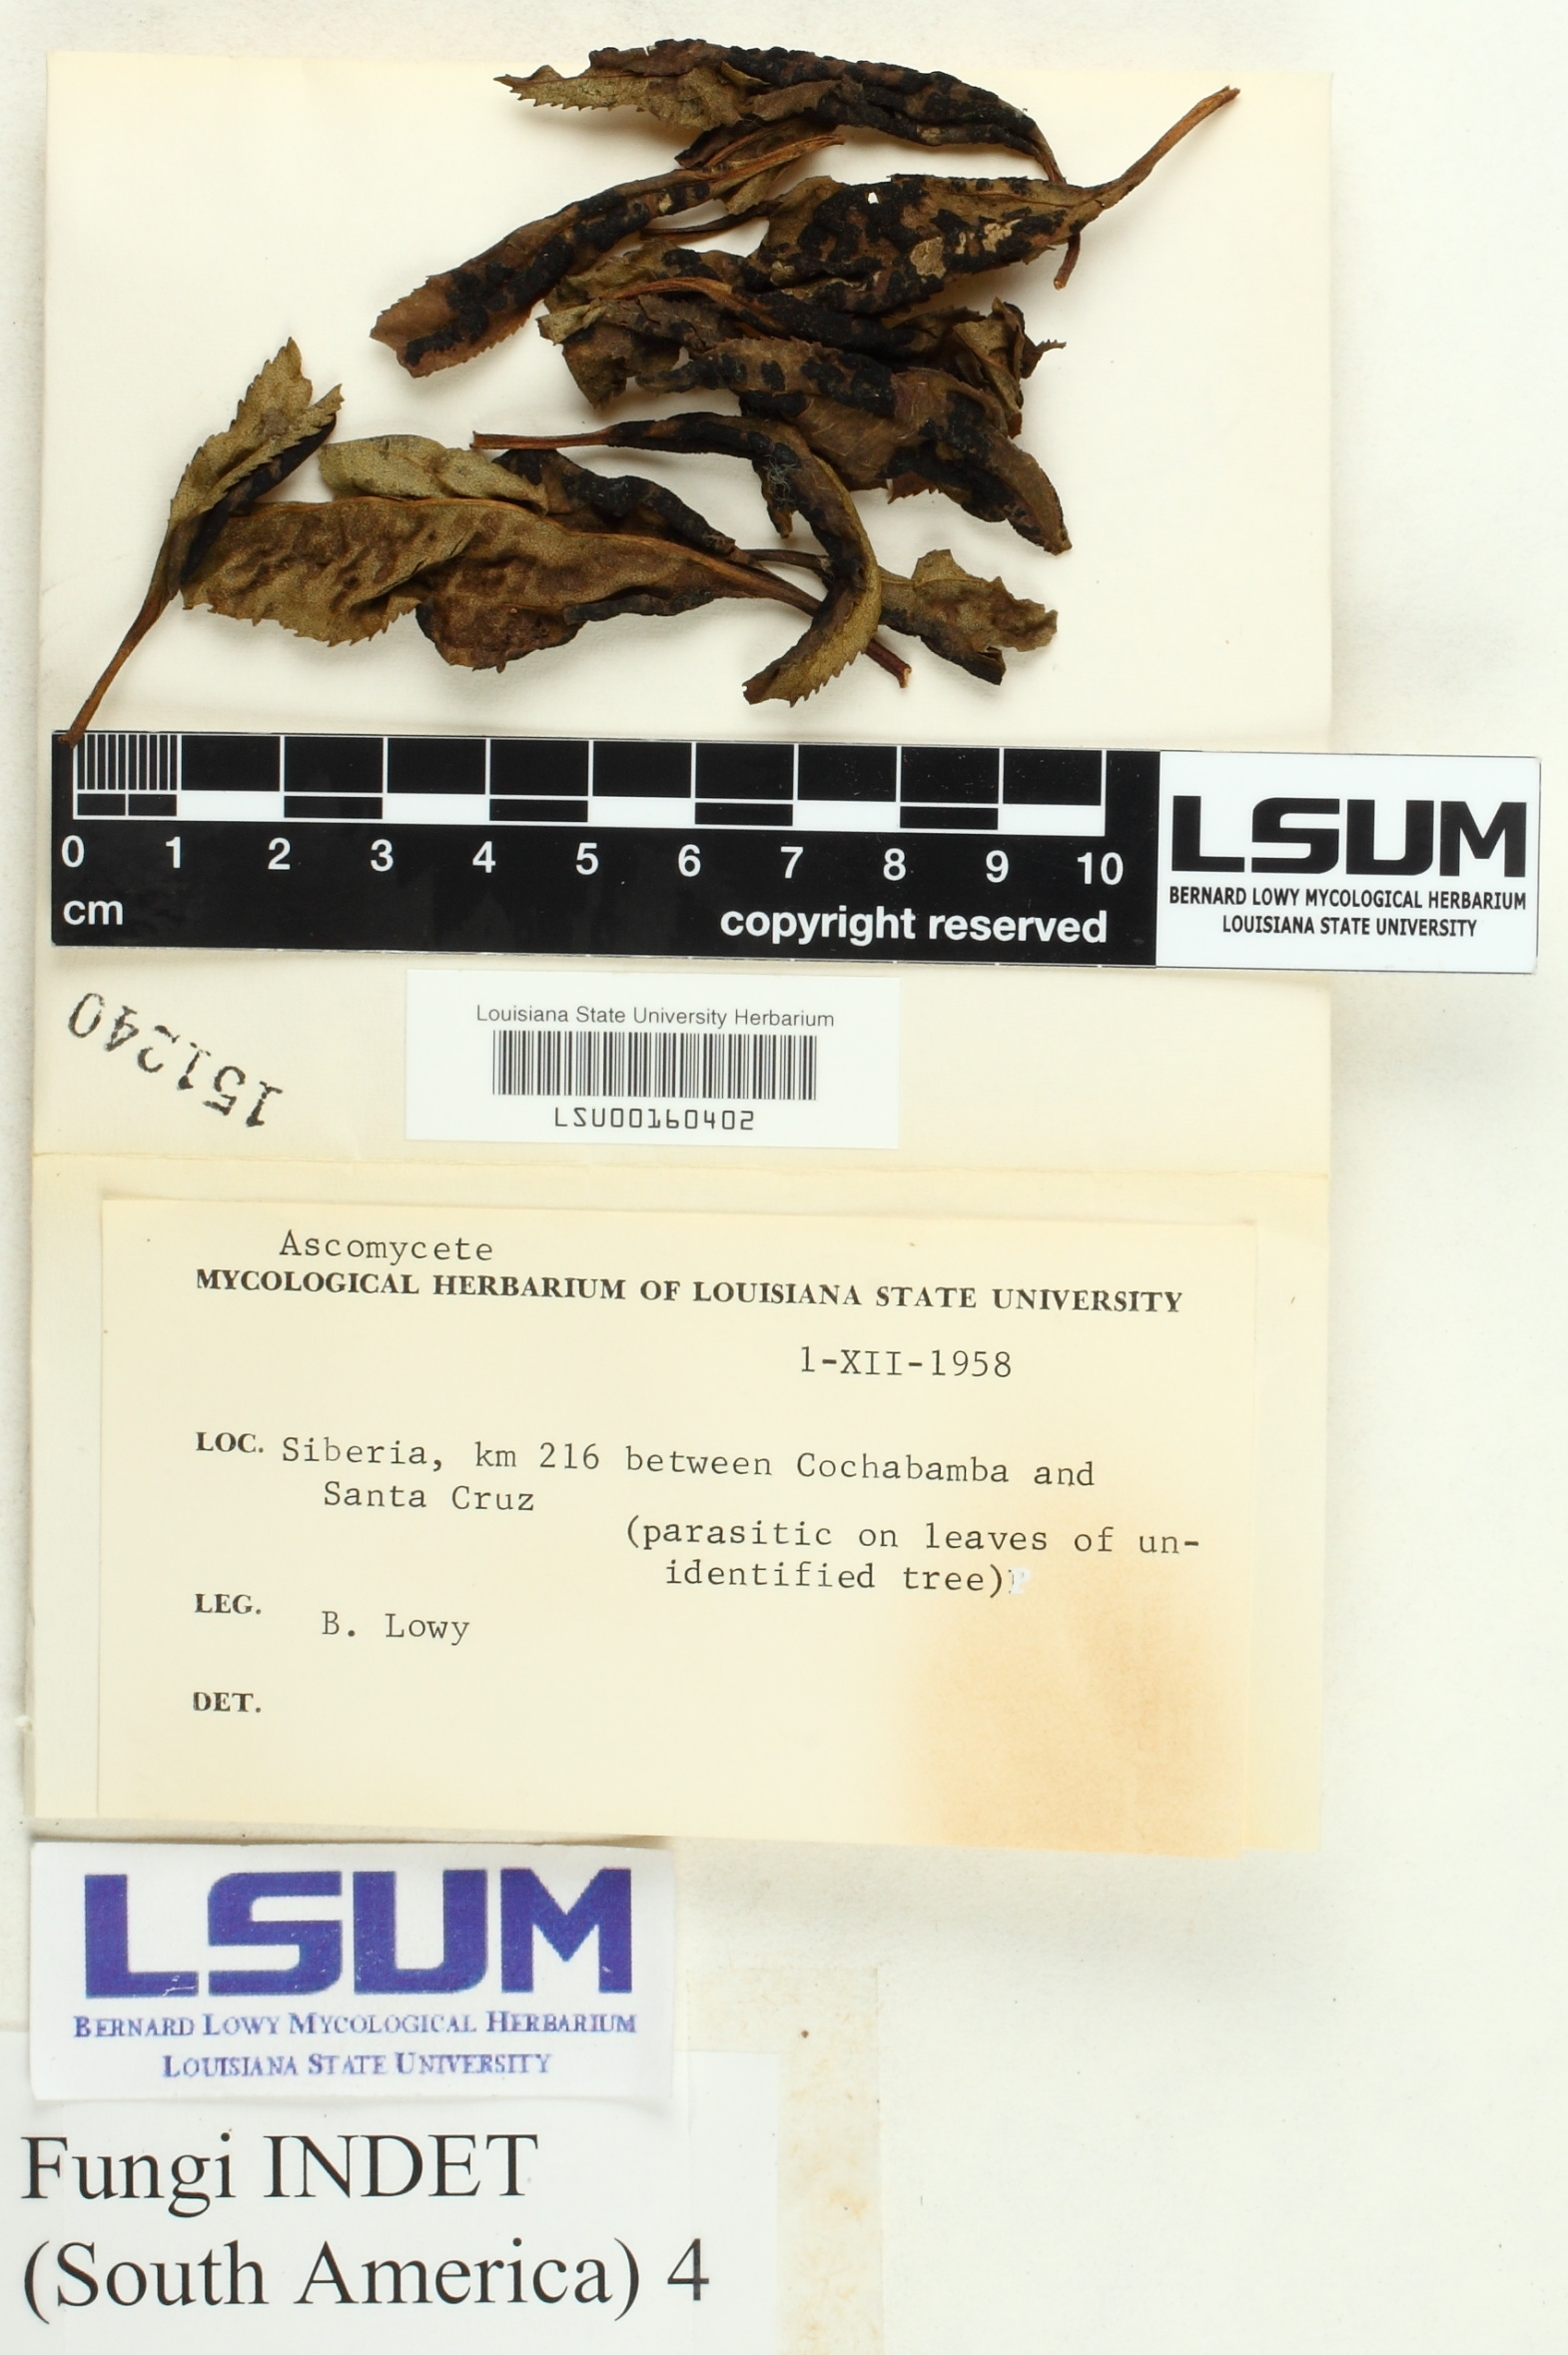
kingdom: Fungi
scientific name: Fungi
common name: Fungi
